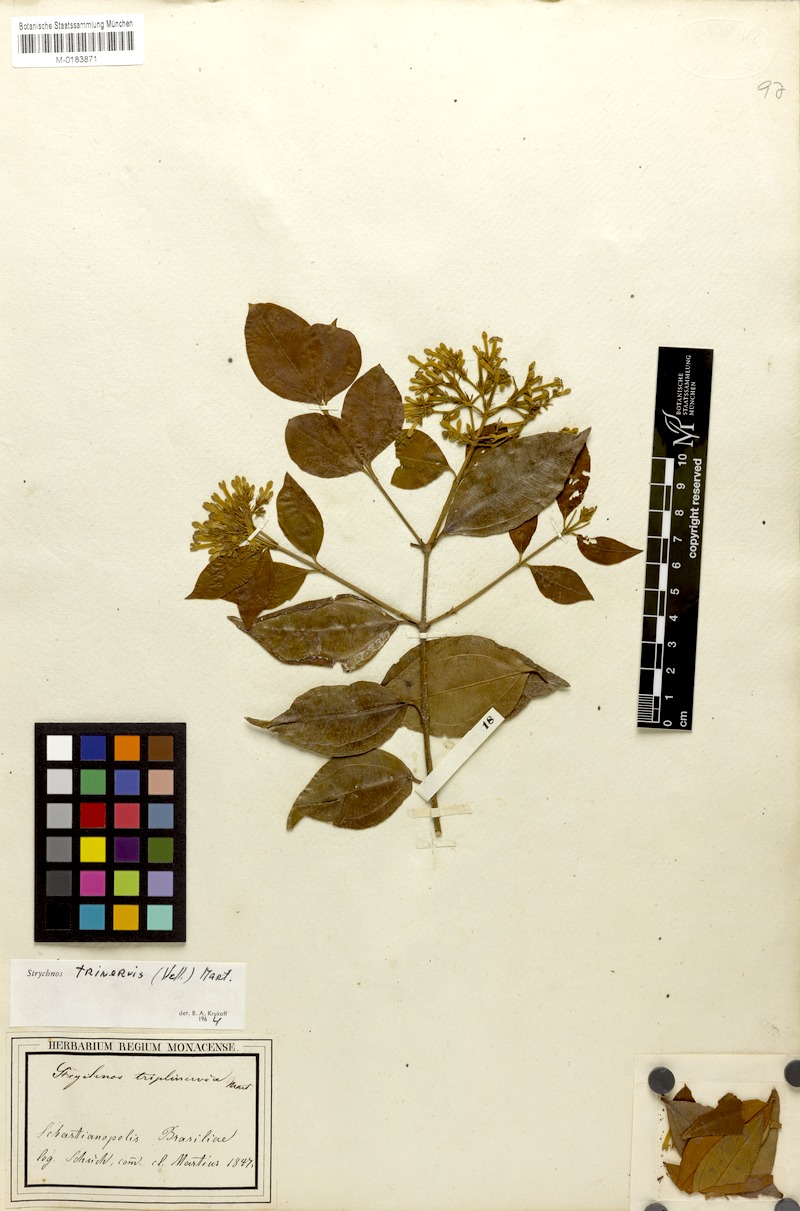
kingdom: Plantae
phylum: Tracheophyta
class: Magnoliopsida
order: Gentianales
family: Loganiaceae
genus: Strychnos
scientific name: Strychnos trinervis
